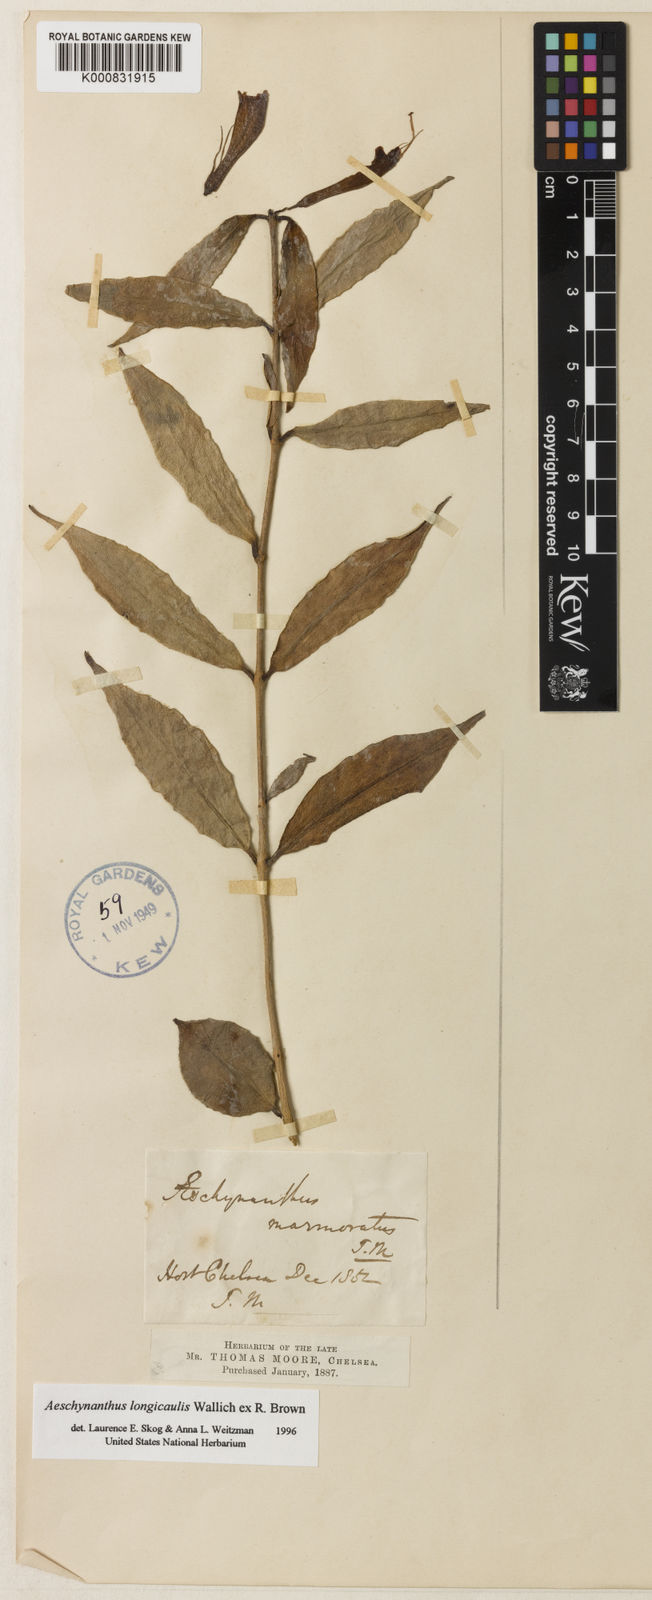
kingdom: Plantae
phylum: Tracheophyta
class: Magnoliopsida
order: Lamiales
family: Gesneriaceae
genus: Aeschynanthus
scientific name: Aeschynanthus longicaulis
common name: Zebra basketvine
